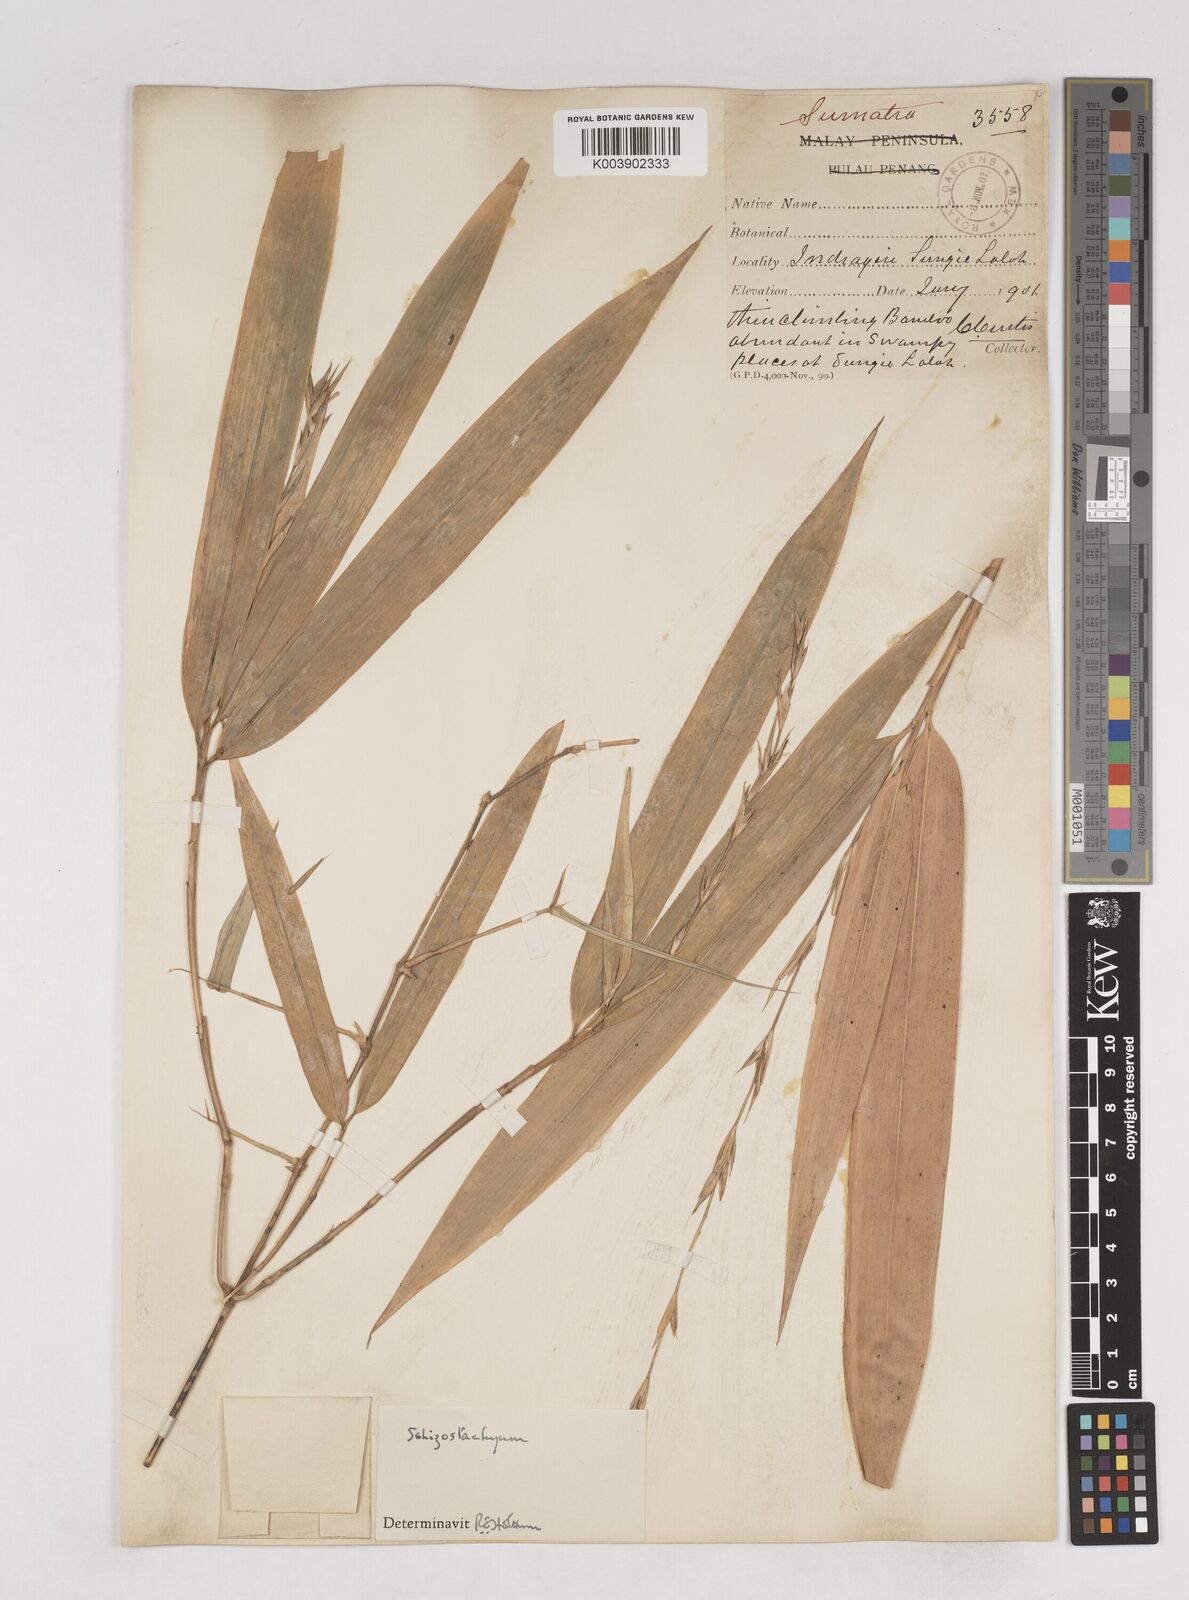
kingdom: Plantae
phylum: Tracheophyta
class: Liliopsida
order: Poales
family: Poaceae
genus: Schizostachyum
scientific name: Schizostachyum terminale
